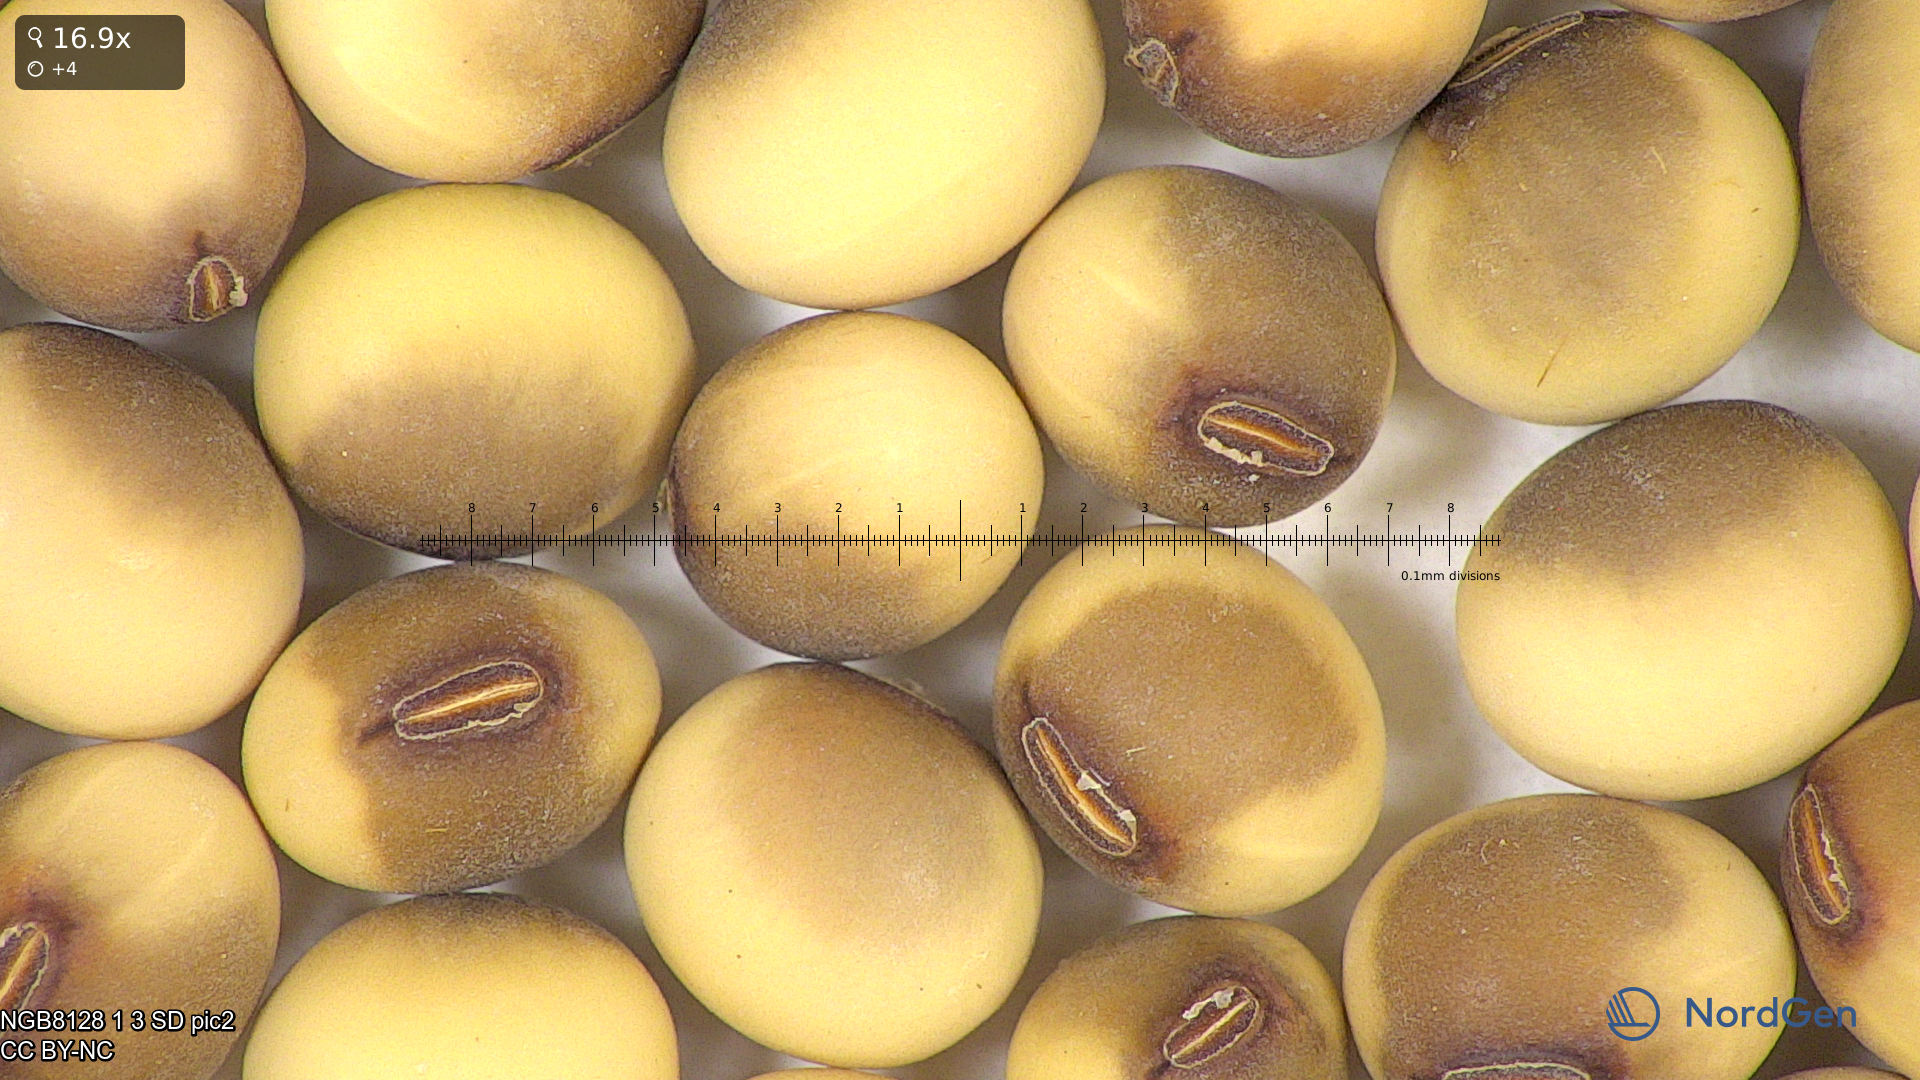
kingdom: Plantae
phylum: Tracheophyta
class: Magnoliopsida
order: Fabales
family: Fabaceae
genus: Glycine
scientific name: Glycine max
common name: Soya-bean
